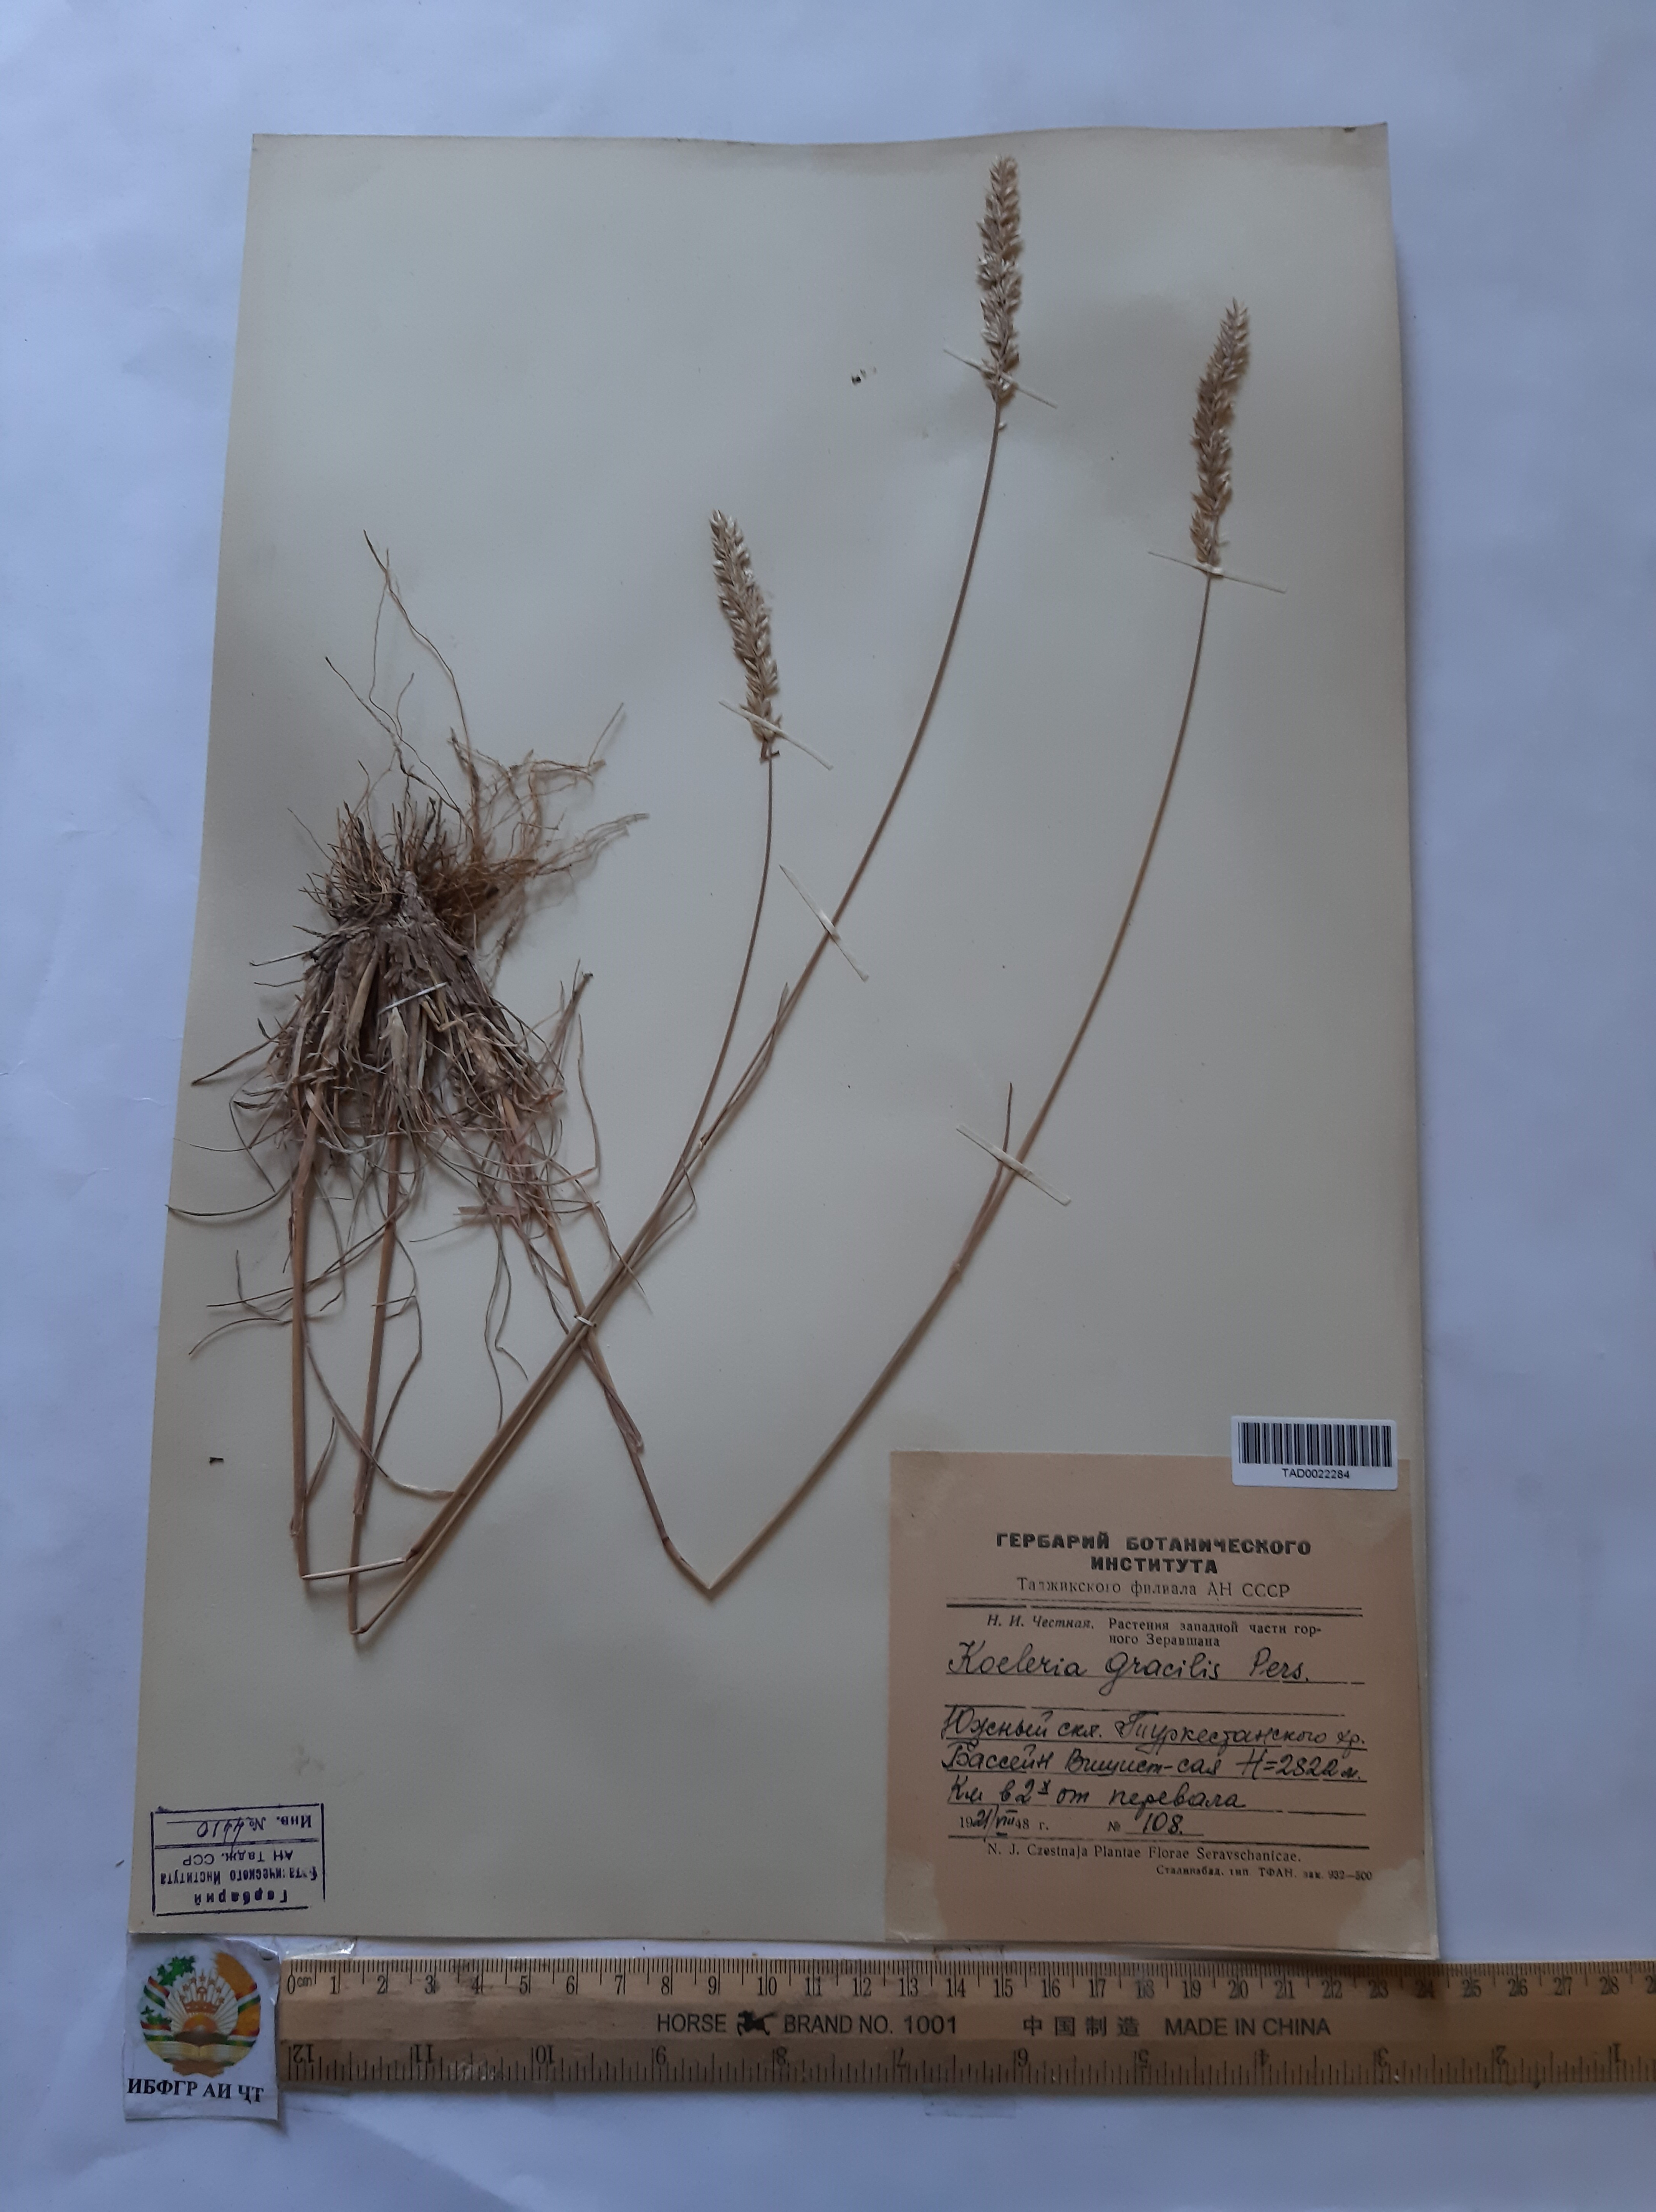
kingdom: Plantae
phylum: Tracheophyta
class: Liliopsida
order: Poales
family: Poaceae
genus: Koeleria
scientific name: Koeleria macrantha
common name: Crested hair-grass
